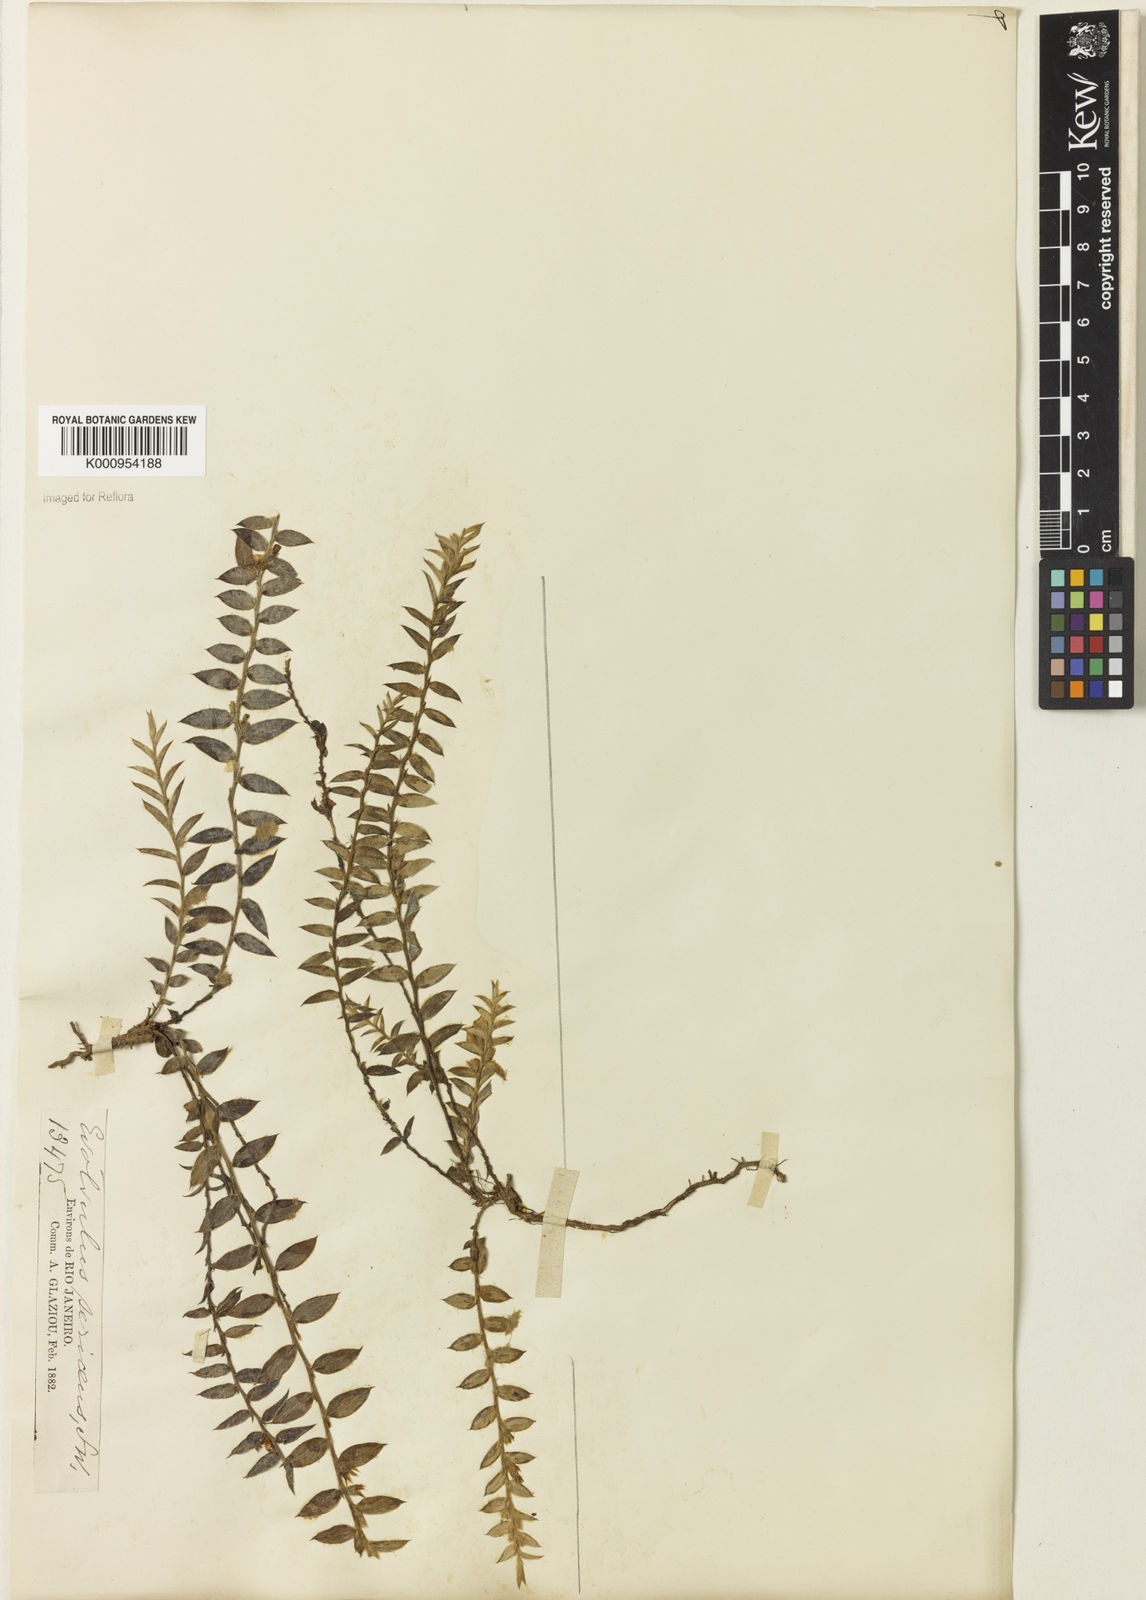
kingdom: Plantae
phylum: Tracheophyta
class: Magnoliopsida
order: Solanales
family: Convolvulaceae
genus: Evolvulus
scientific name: Evolvulus
